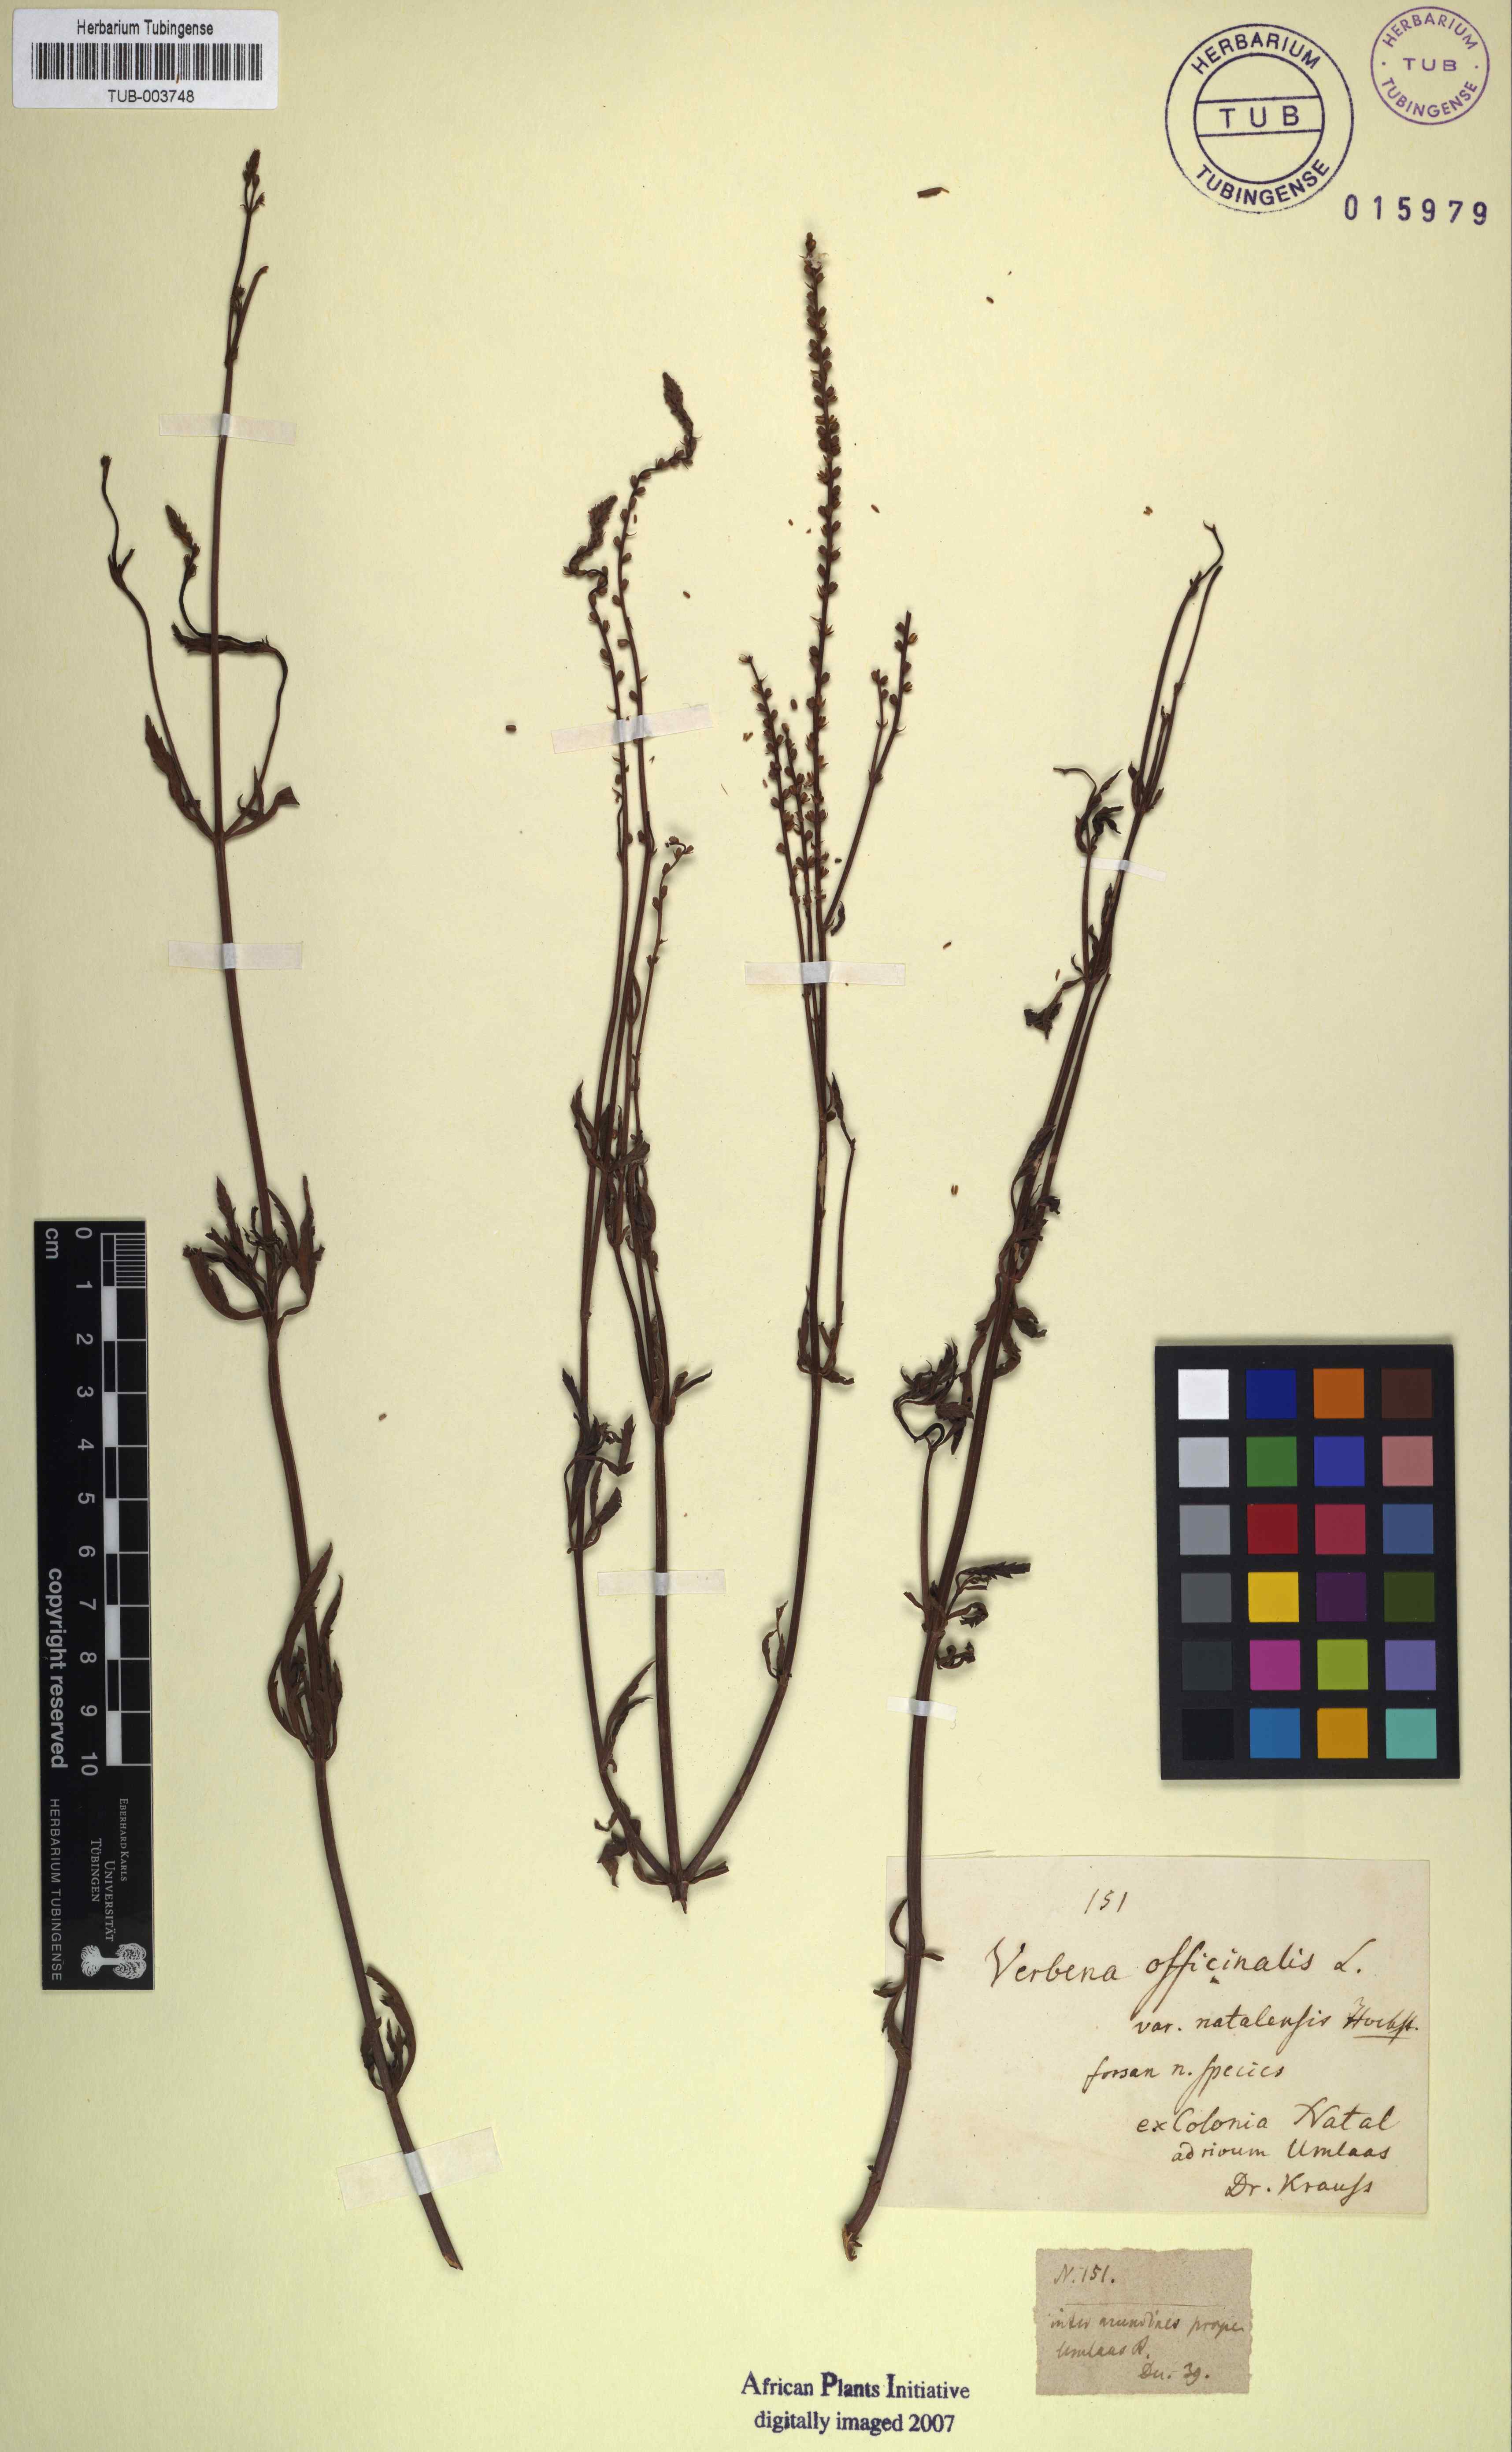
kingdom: Plantae
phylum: Tracheophyta
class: Magnoliopsida
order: Lamiales
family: Verbenaceae
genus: Verbena
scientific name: Verbena officinalis
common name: Vervain
